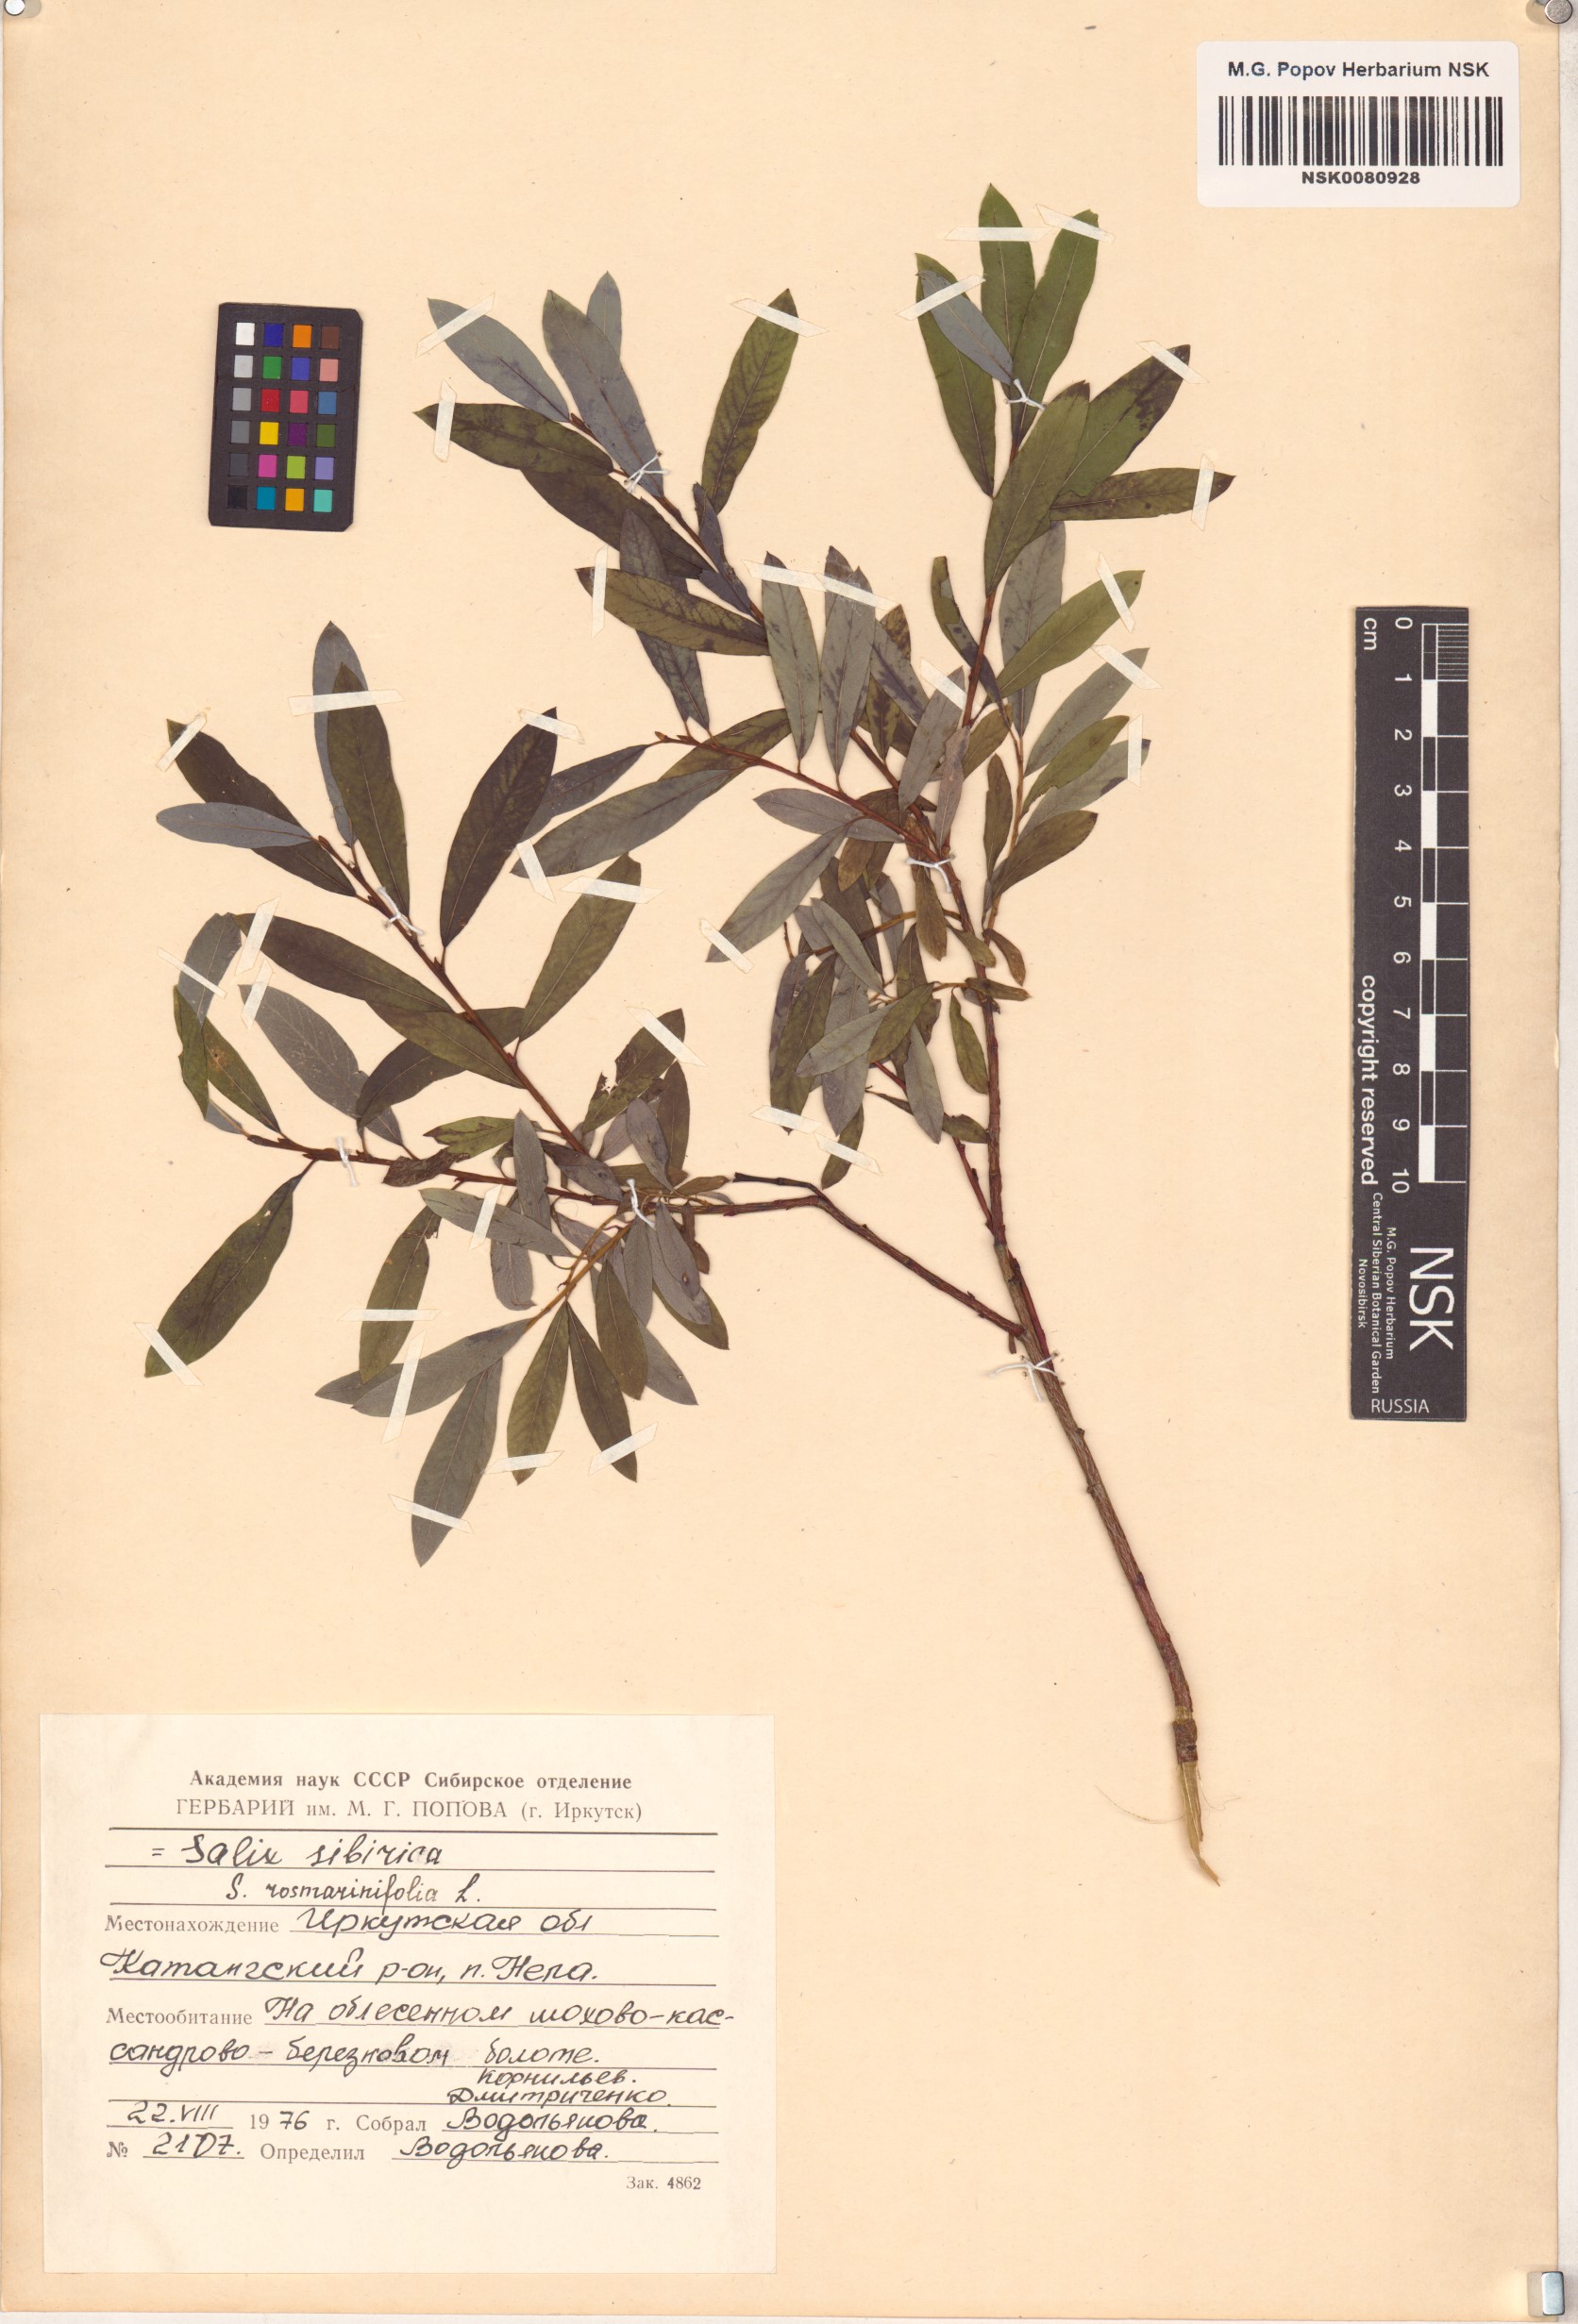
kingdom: Plantae
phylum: Tracheophyta
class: Magnoliopsida
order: Malpighiales
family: Salicaceae
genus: Salix
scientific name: Salix rosmarinifolia
